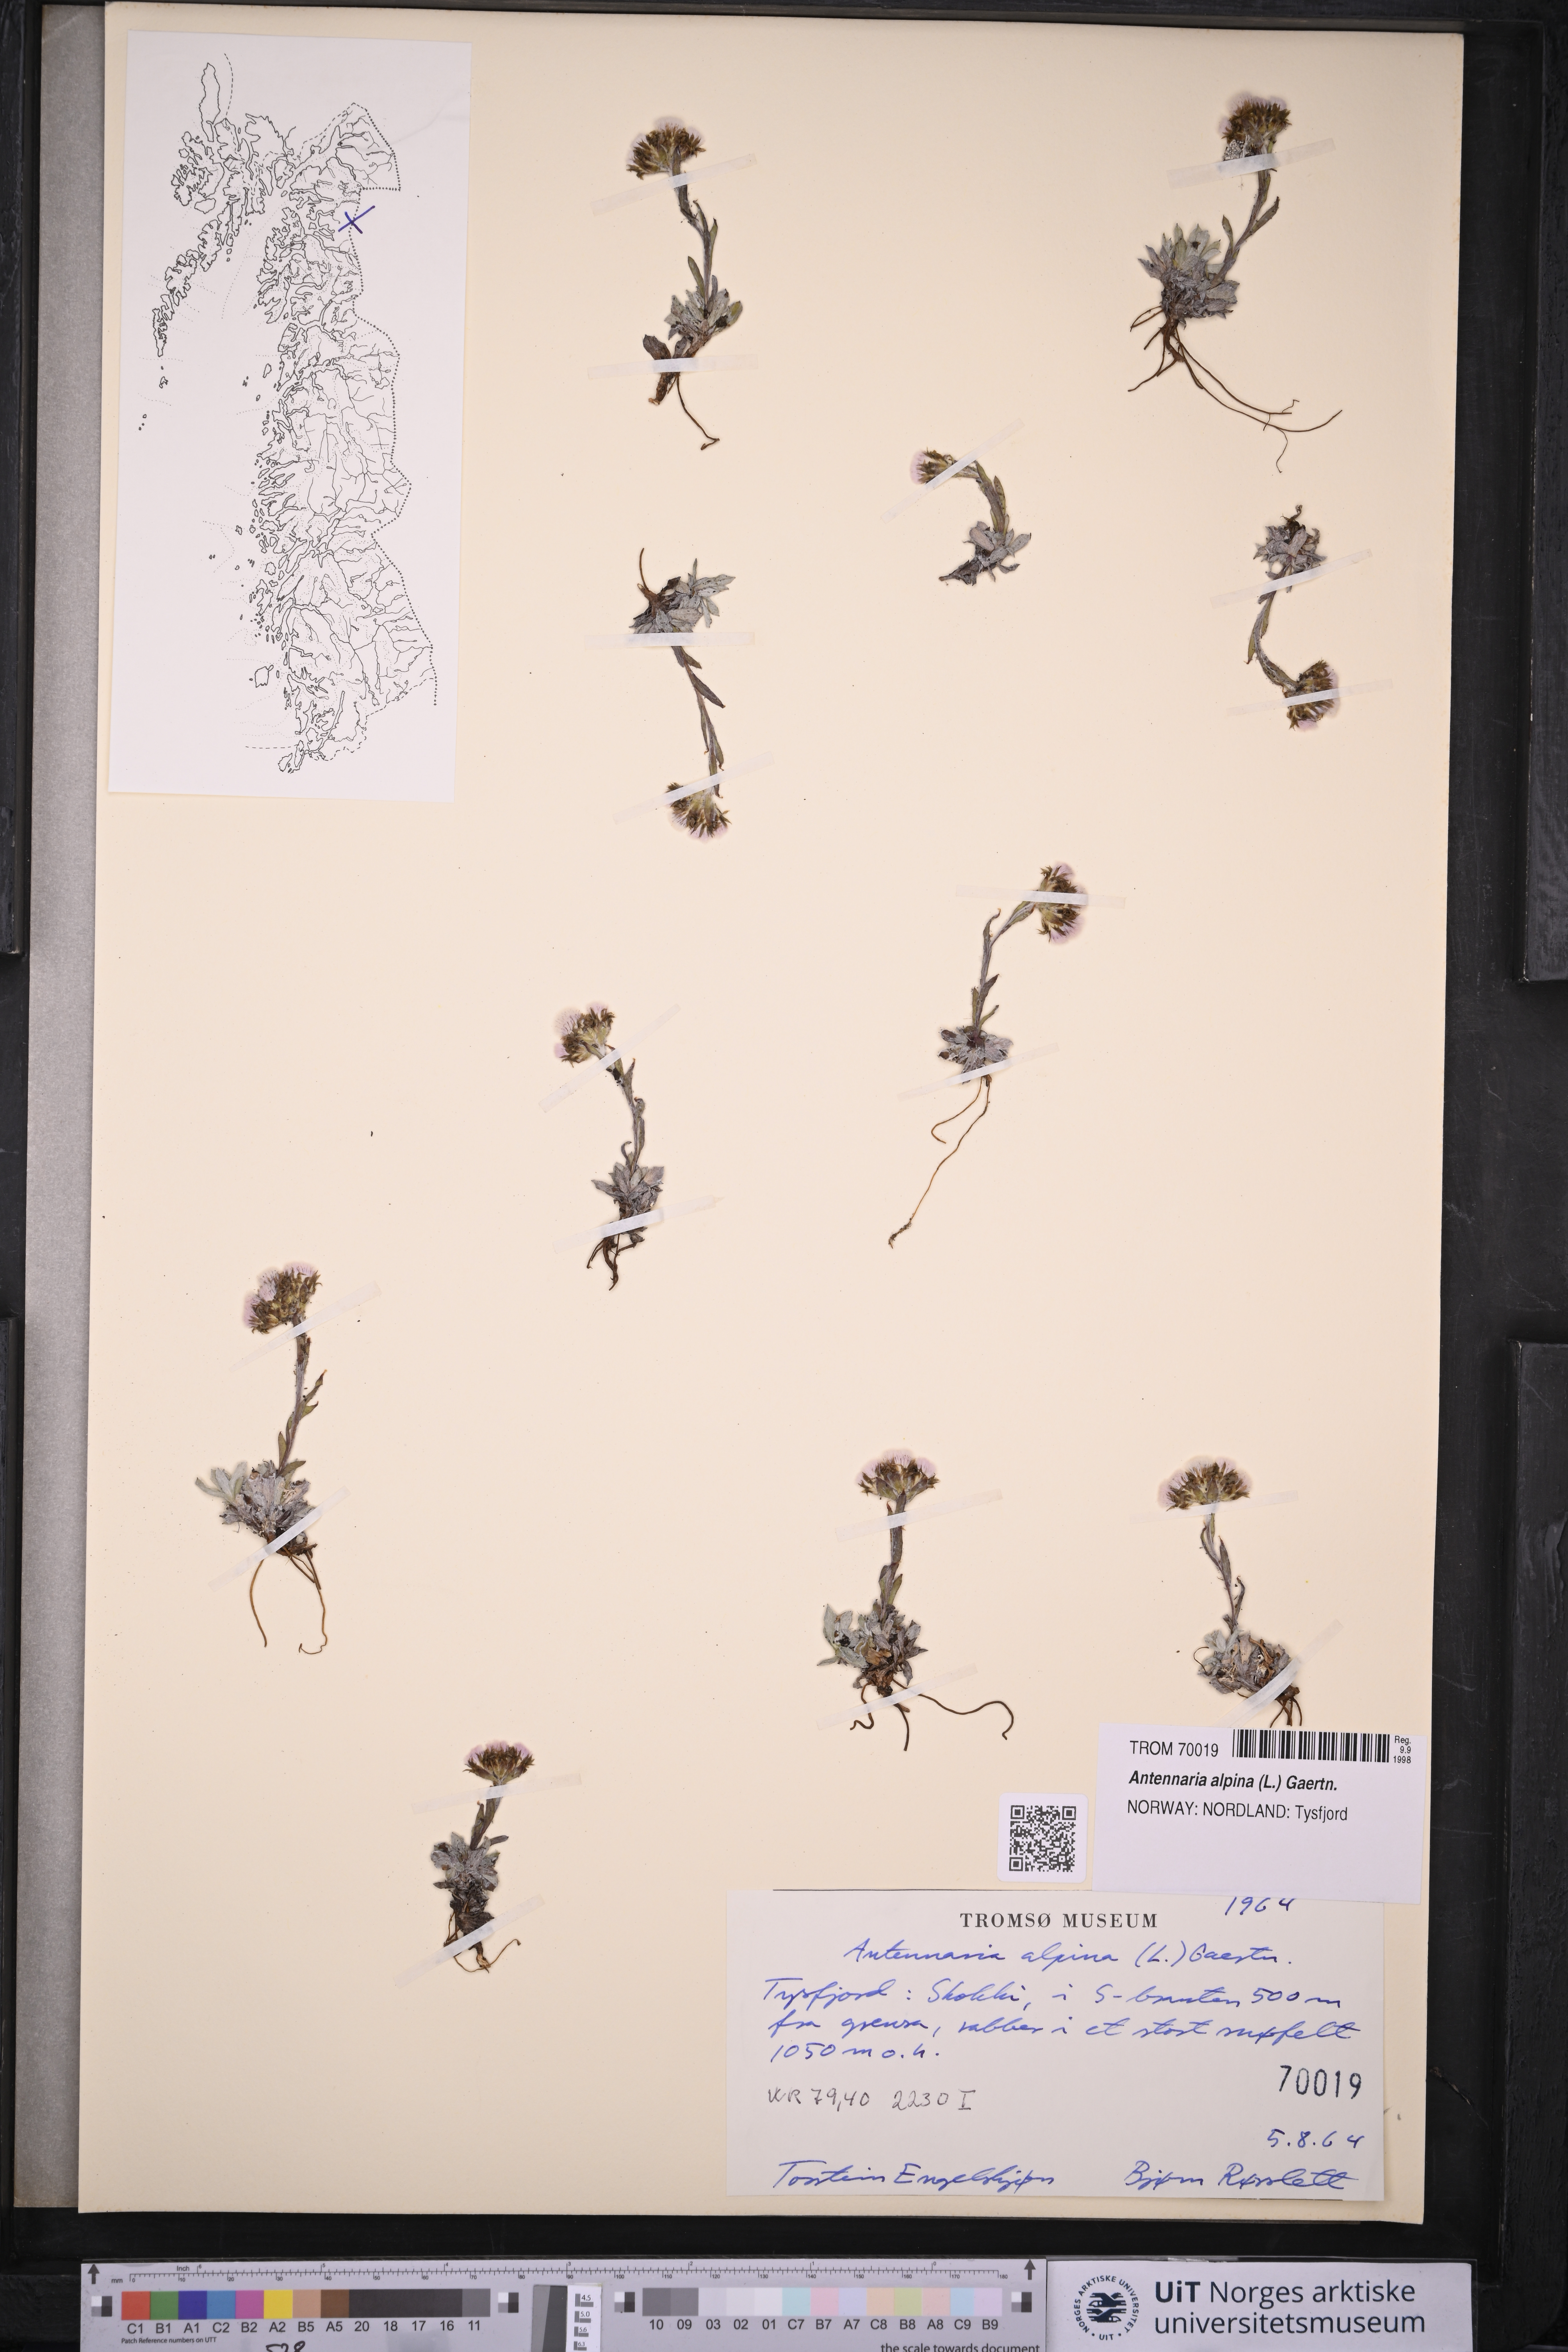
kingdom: Plantae
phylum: Tracheophyta
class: Magnoliopsida
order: Asterales
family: Asteraceae
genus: Antennaria
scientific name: Antennaria alpina
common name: Alpine pussytoes
